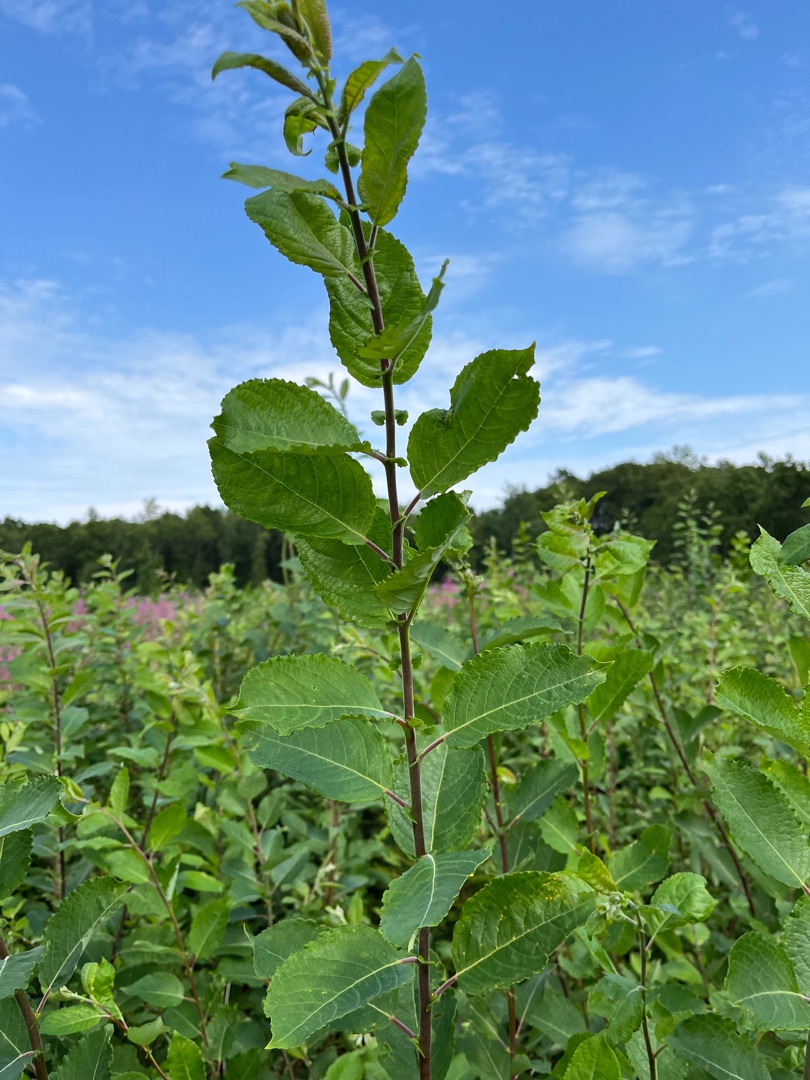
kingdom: Plantae
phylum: Tracheophyta
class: Magnoliopsida
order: Malpighiales
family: Salicaceae
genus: Salix
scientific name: Salix caprea
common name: Selje-pil
